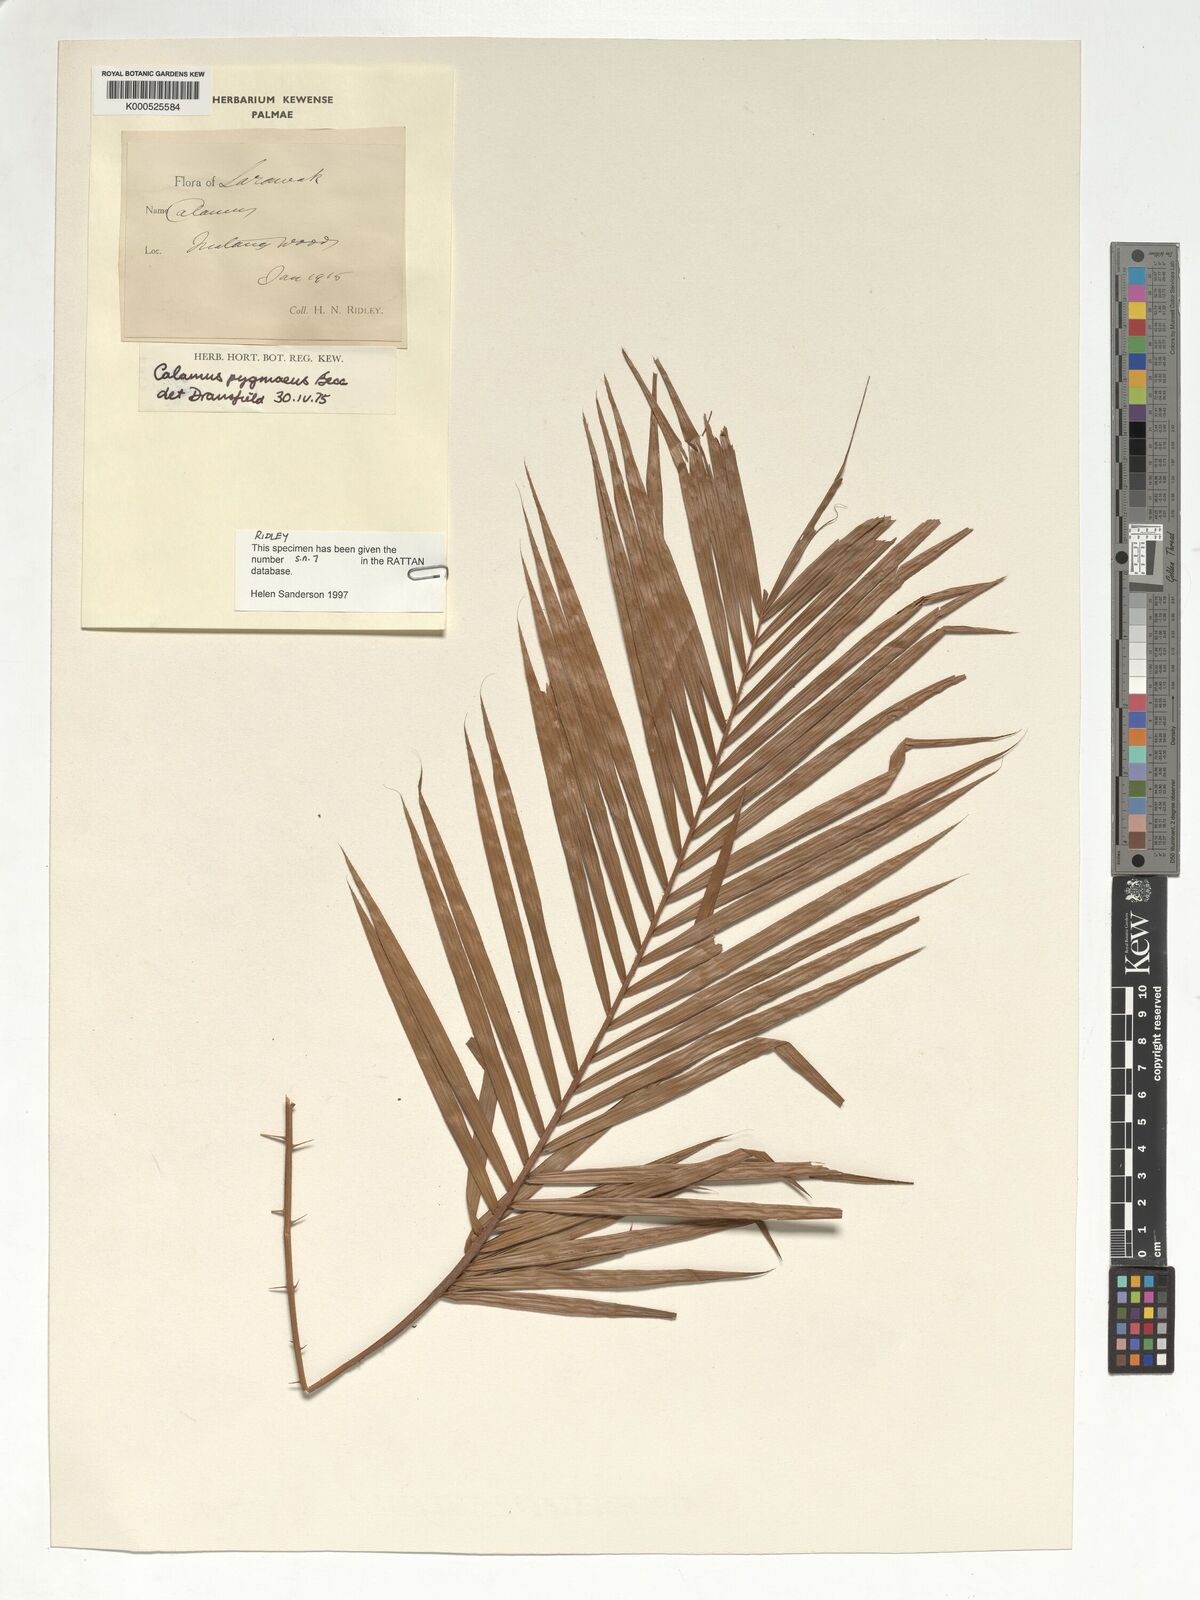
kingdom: Plantae
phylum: Tracheophyta
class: Liliopsida
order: Arecales
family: Arecaceae
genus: Calamus
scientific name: Calamus pygmaeus
